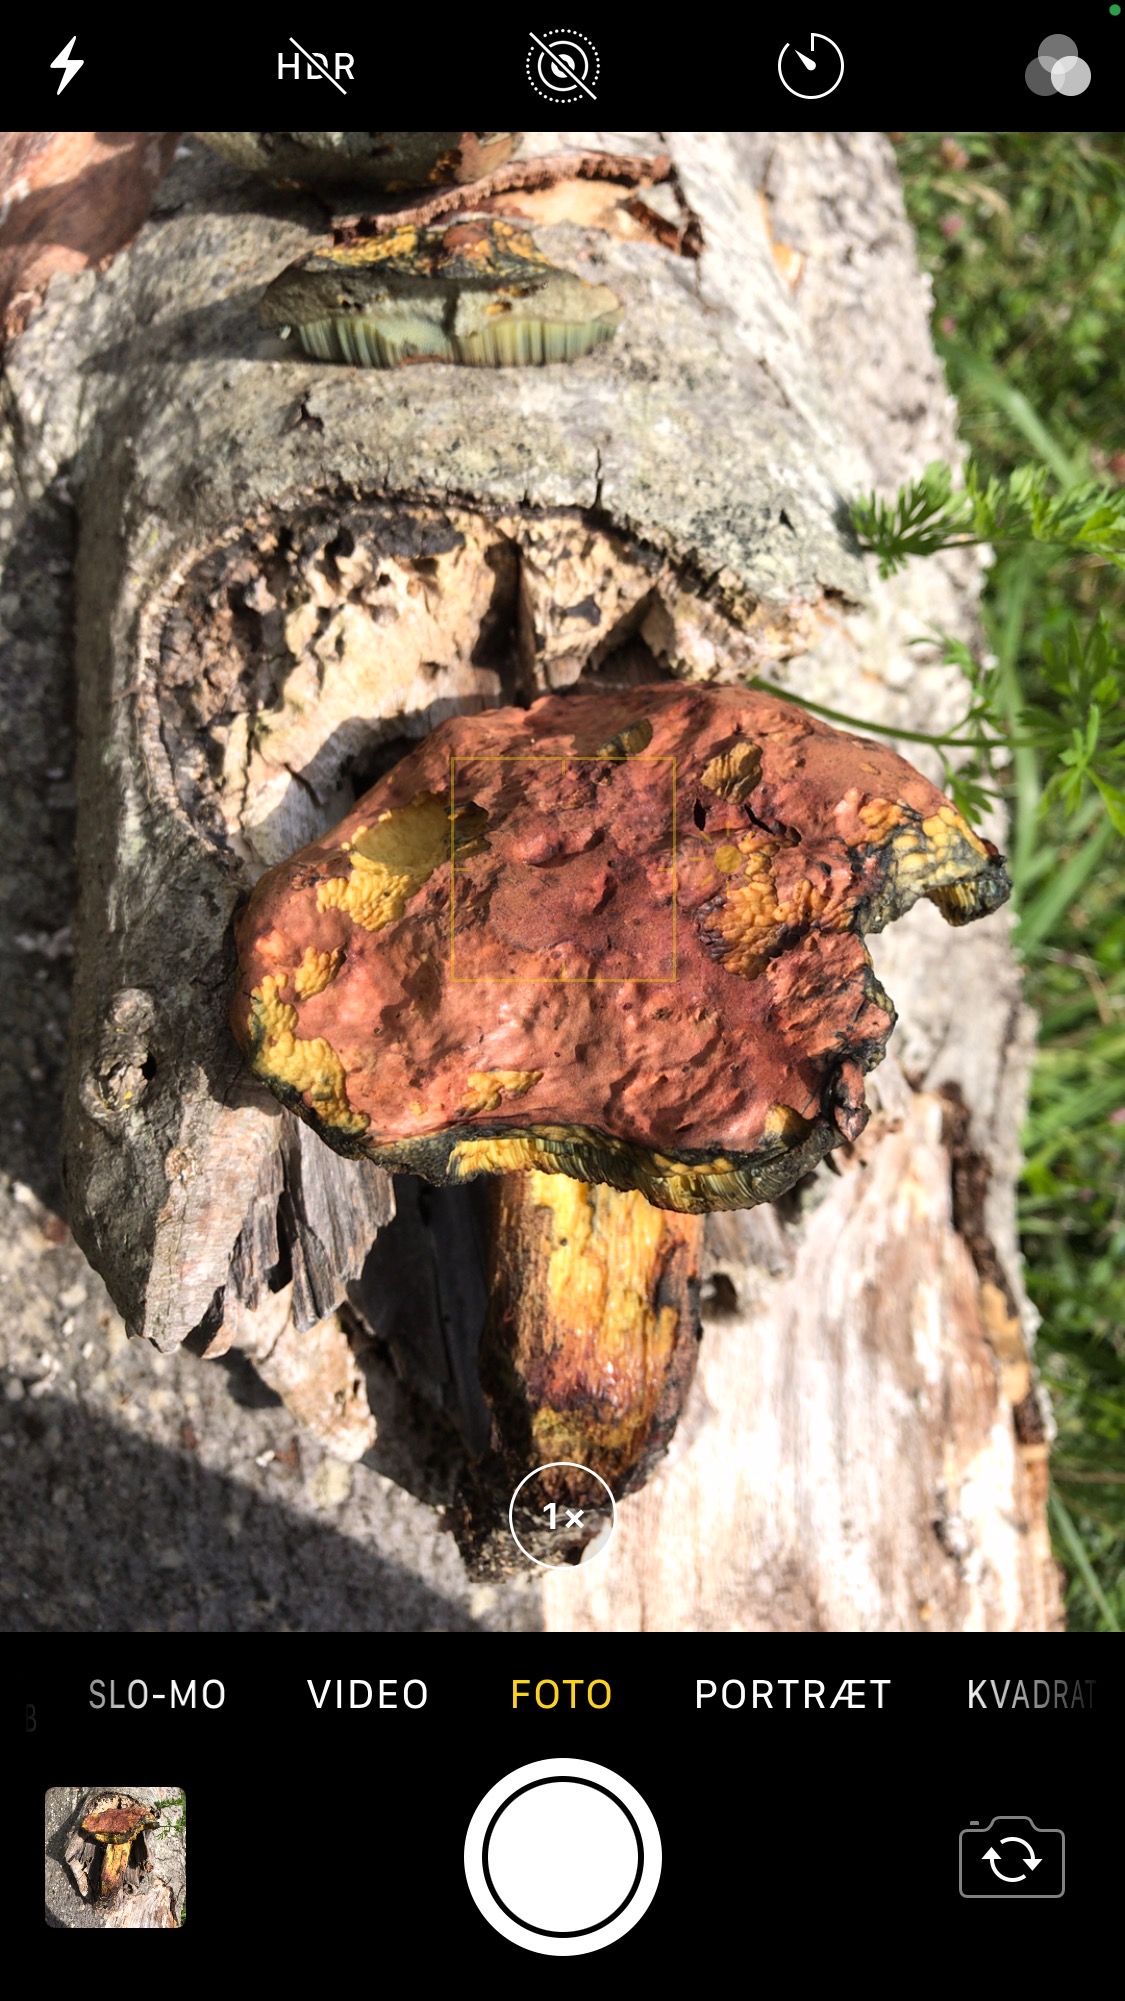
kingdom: Fungi
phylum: Basidiomycota
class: Agaricomycetes
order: Boletales
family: Boletaceae
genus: Neoboletus
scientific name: Neoboletus xanthopus
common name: finprikket indigorørhat
